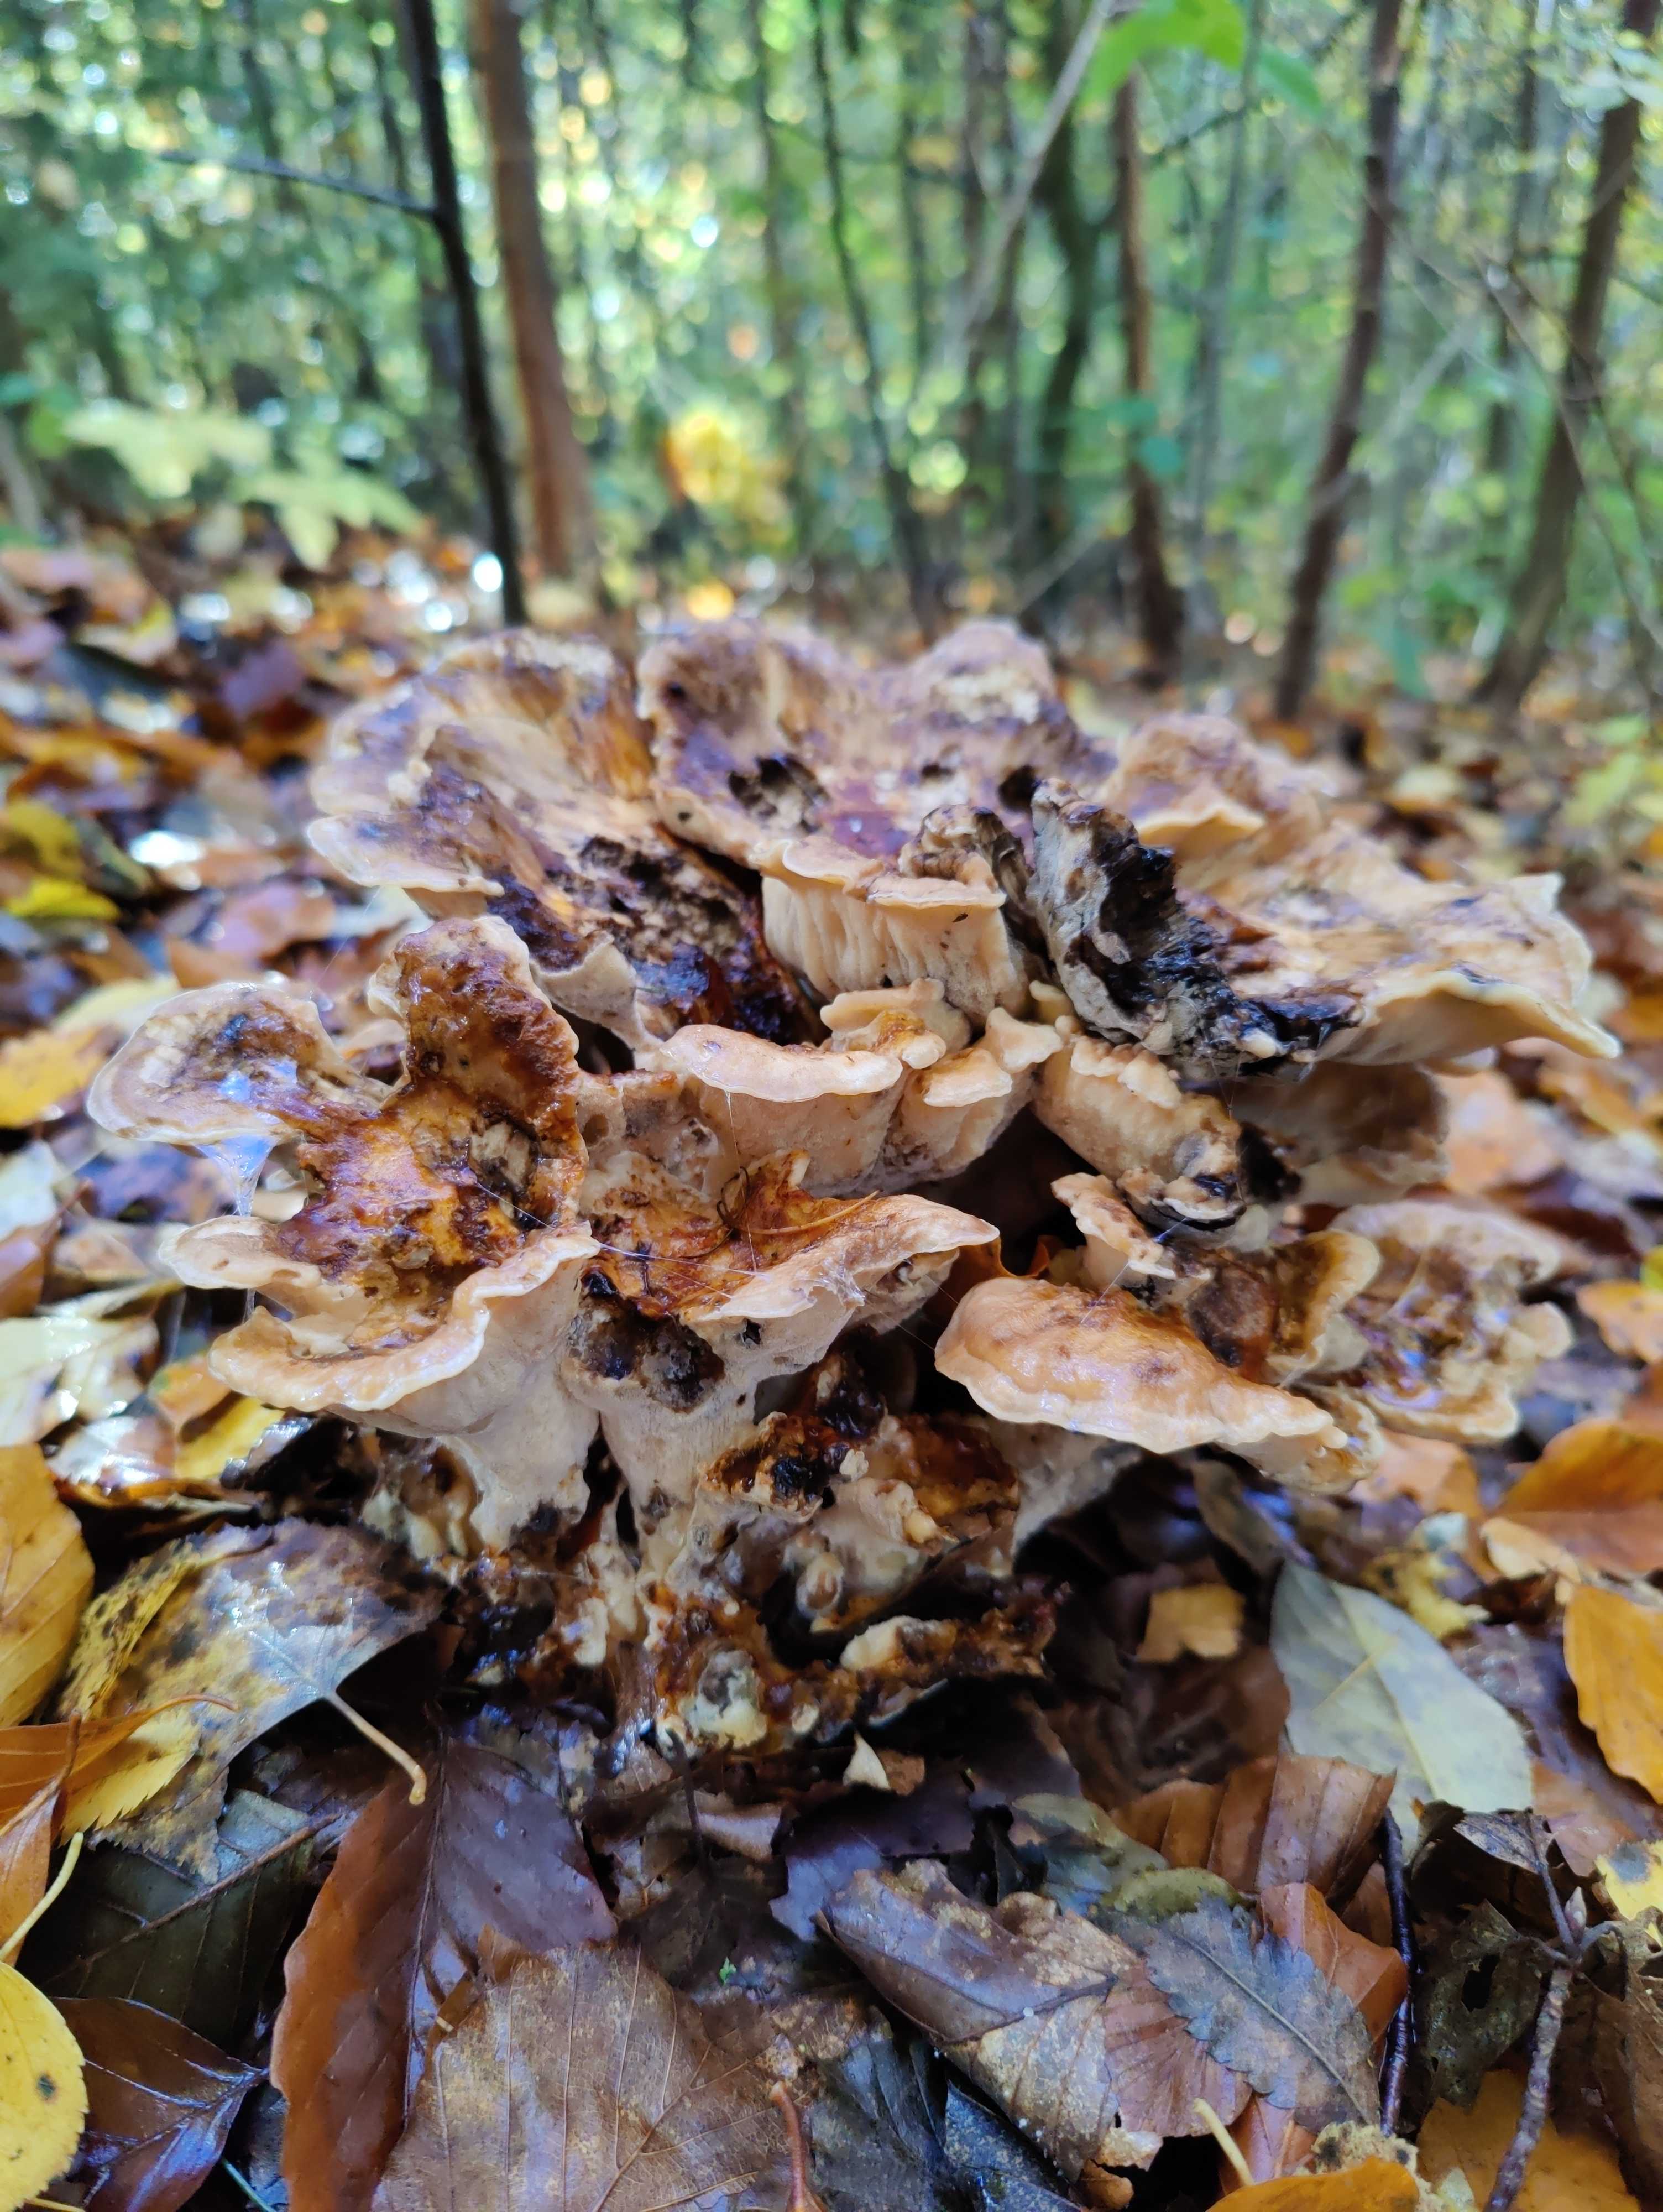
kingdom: Fungi
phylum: Basidiomycota
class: Agaricomycetes
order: Polyporales
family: Meripilaceae
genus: Meripilus
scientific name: Meripilus giganteus
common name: kæmpeporesvamp
